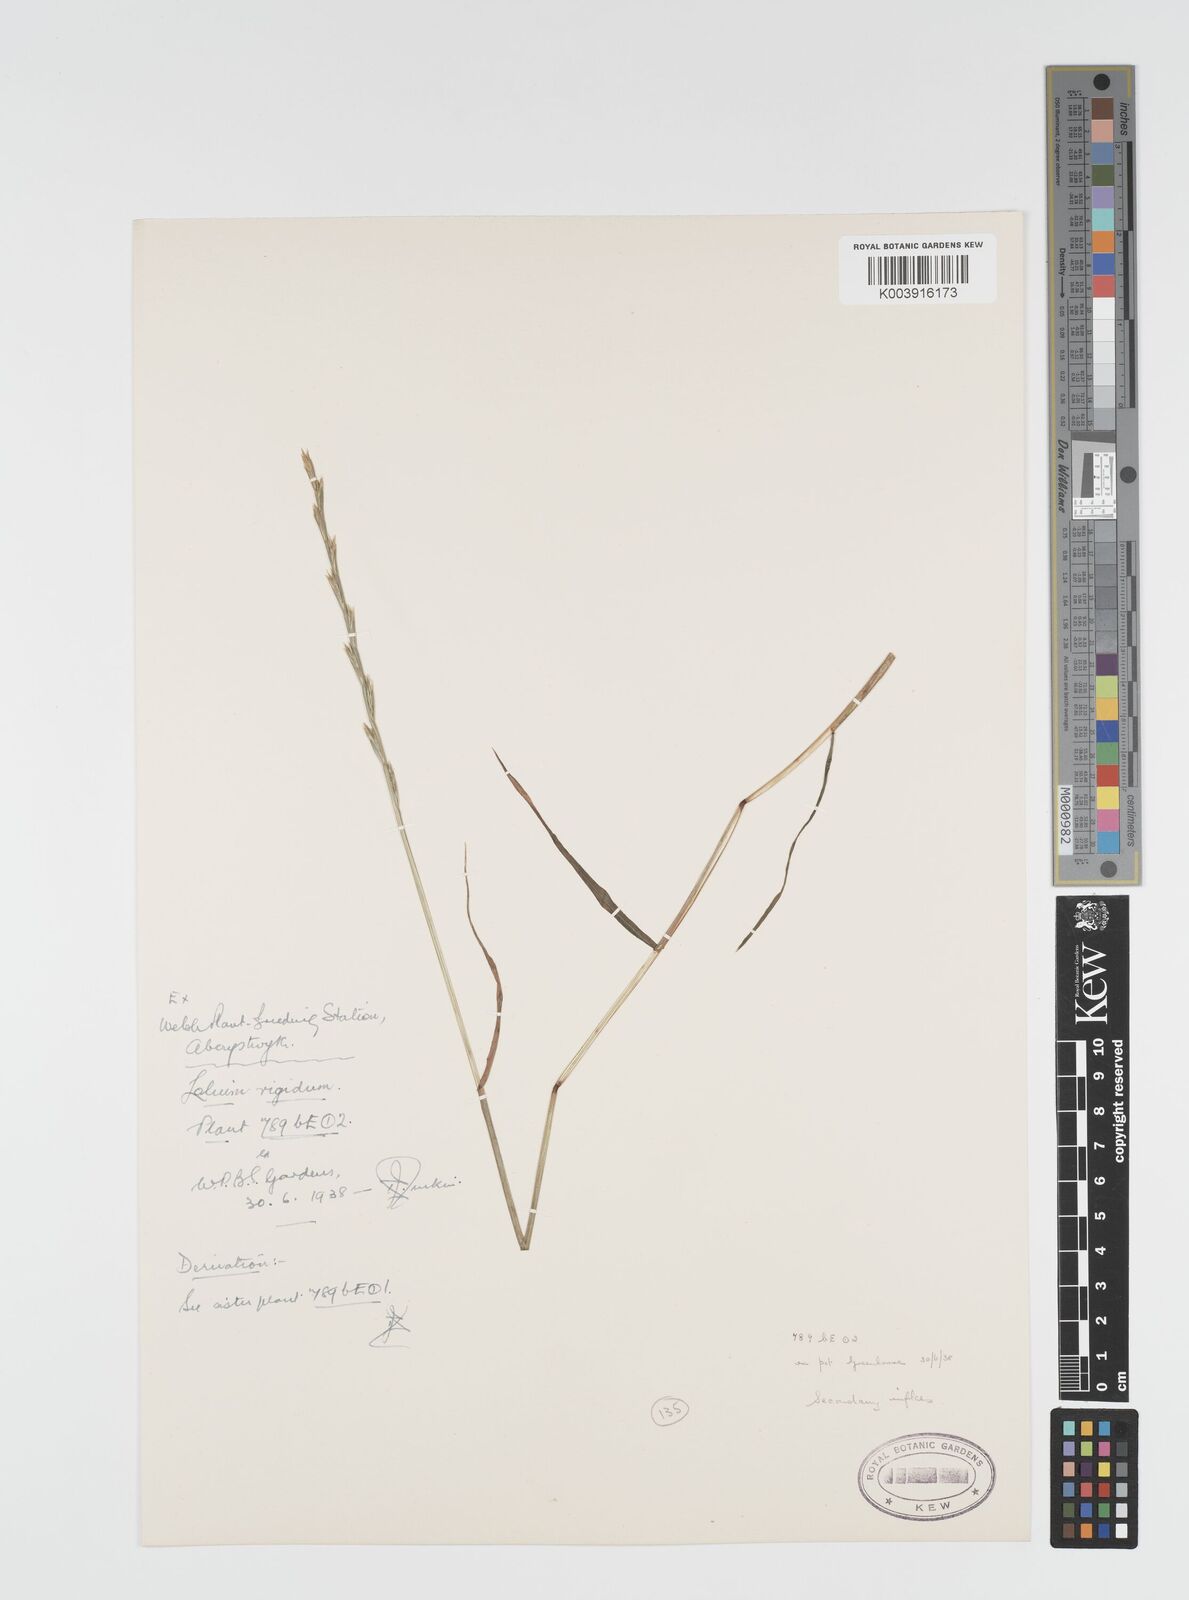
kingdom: Plantae
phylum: Tracheophyta
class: Liliopsida
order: Poales
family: Poaceae
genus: Lolium
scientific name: Lolium rigidum
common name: Wimmera ryegrass
